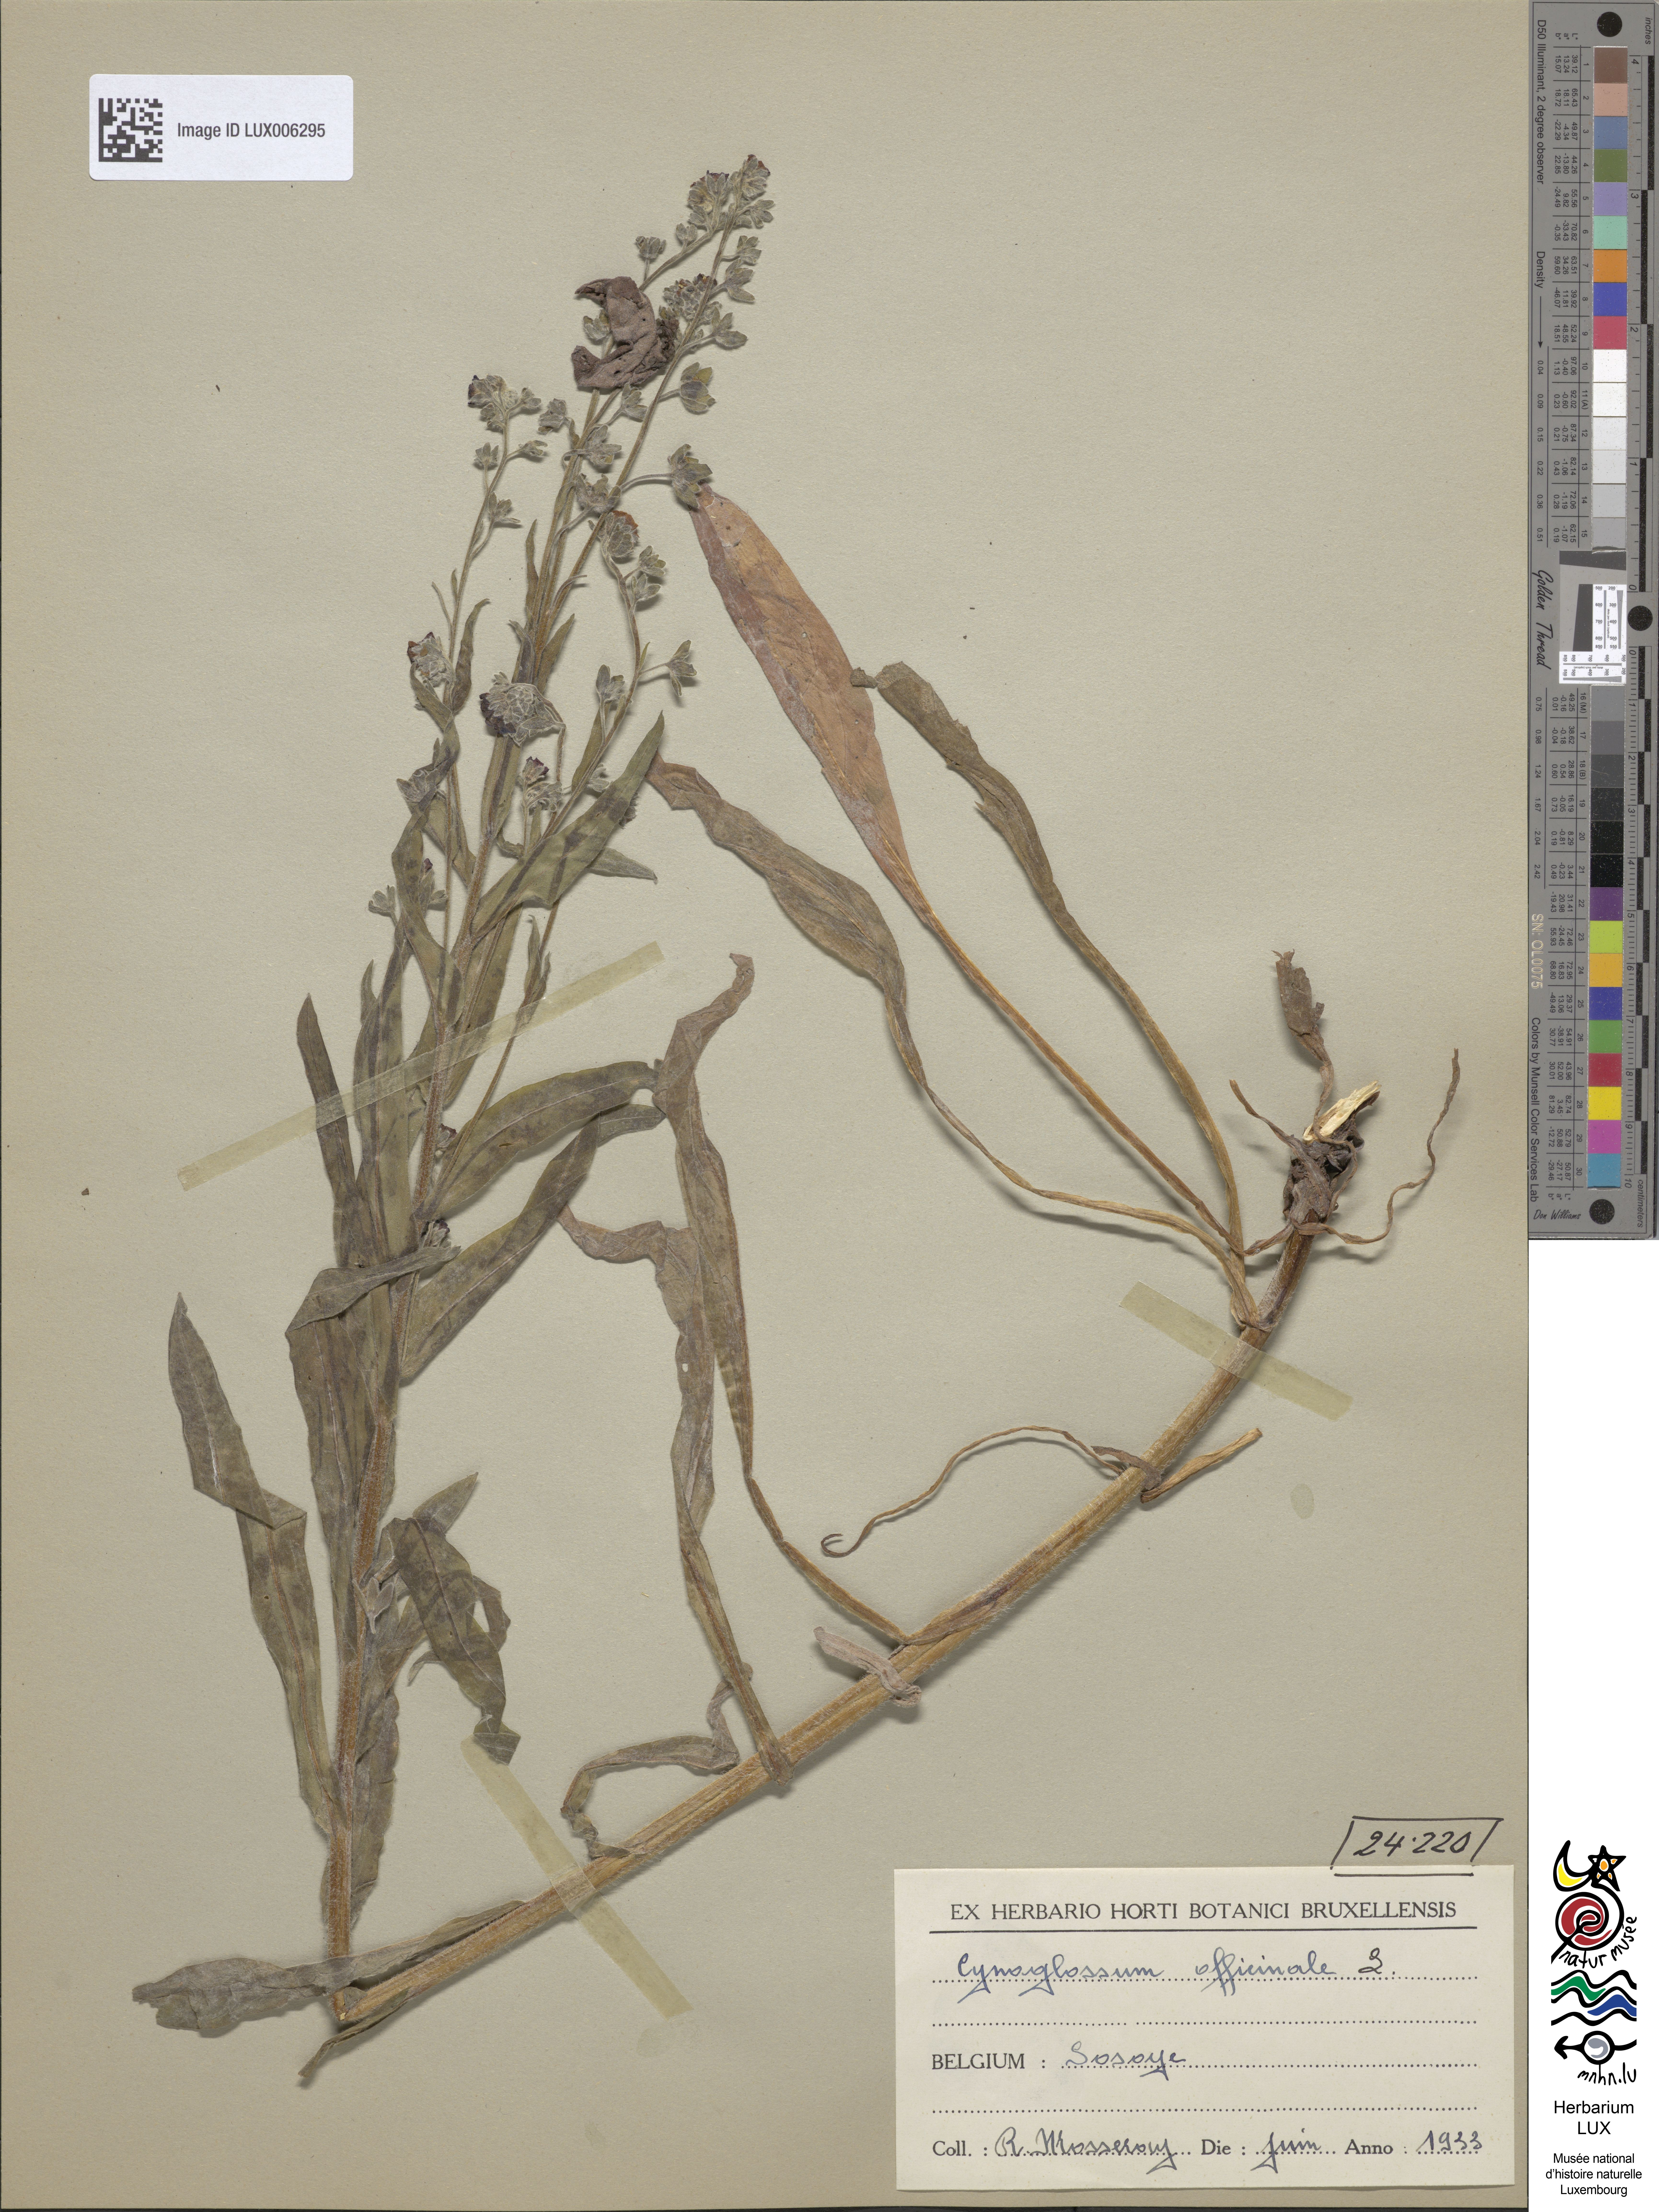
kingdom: Plantae
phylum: Tracheophyta
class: Magnoliopsida
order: Boraginales
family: Boraginaceae
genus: Cynoglossum
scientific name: Cynoglossum officinale
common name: Hound's-tongue
